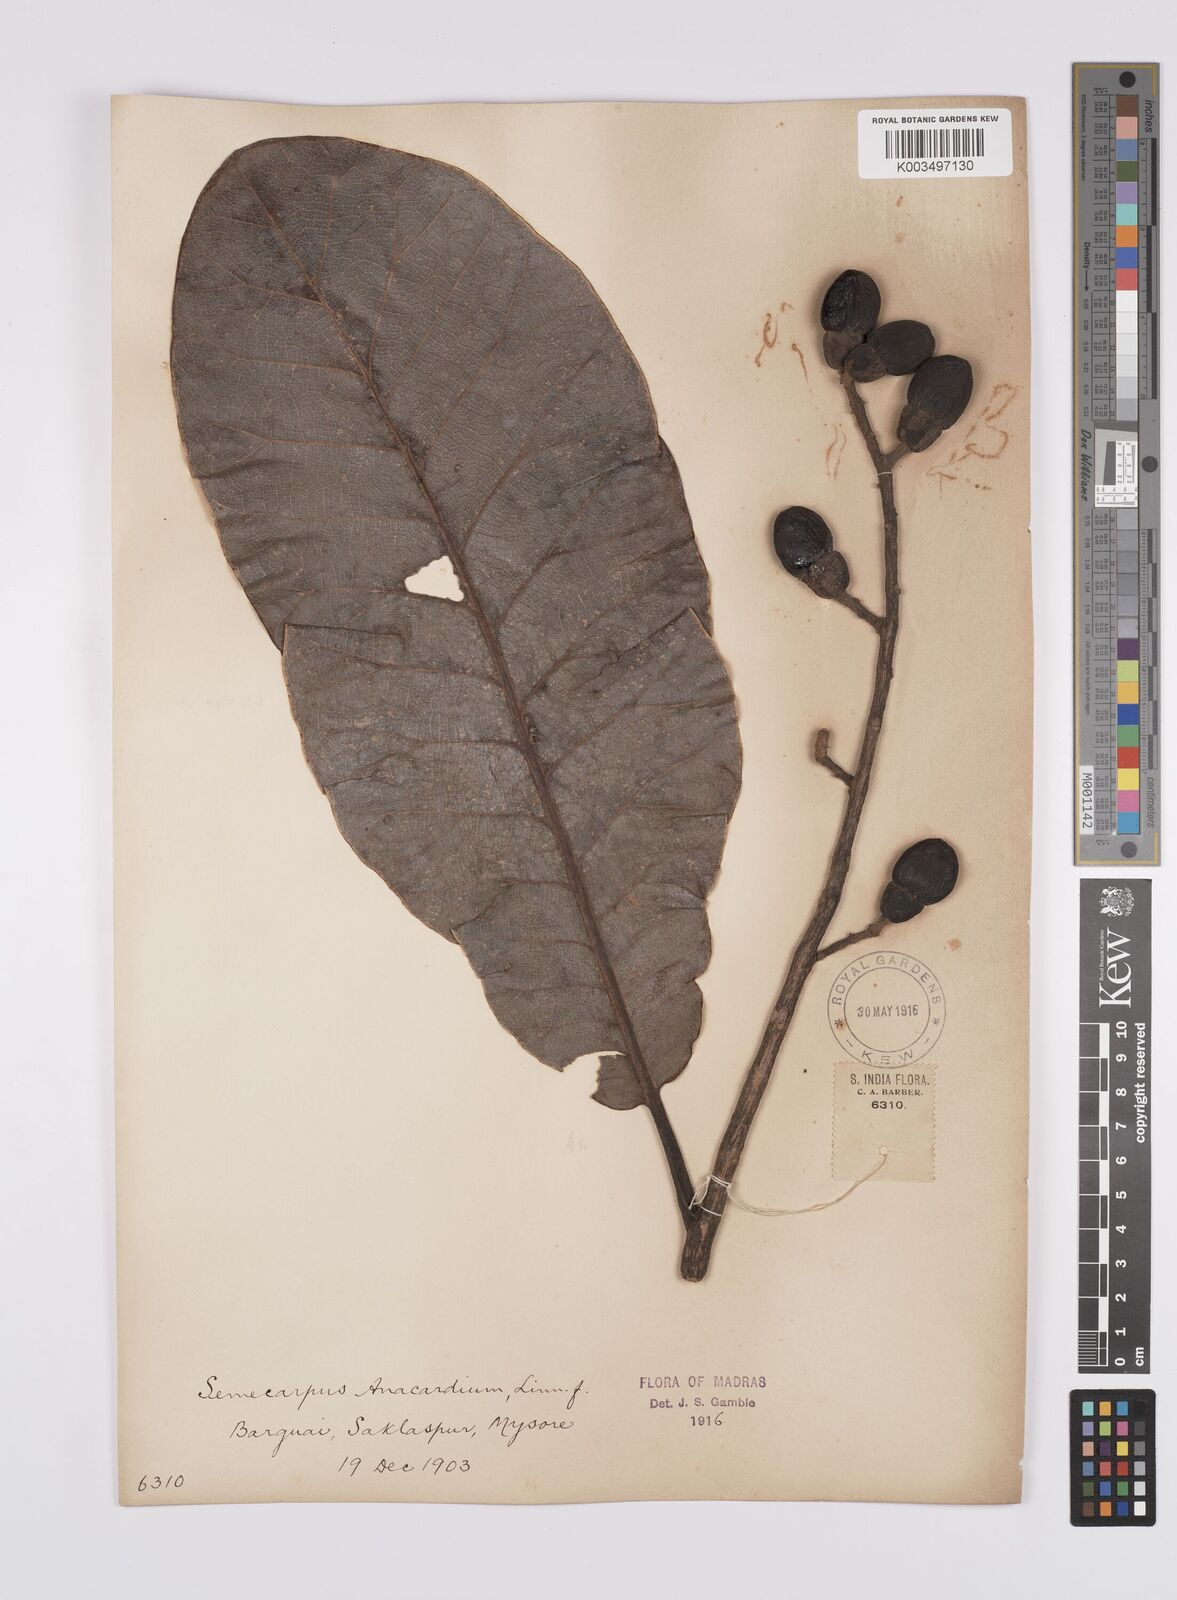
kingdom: Plantae
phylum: Tracheophyta
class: Magnoliopsida
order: Sapindales
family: Anacardiaceae
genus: Semecarpus
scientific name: Semecarpus anacardium
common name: Marking nut-tree
